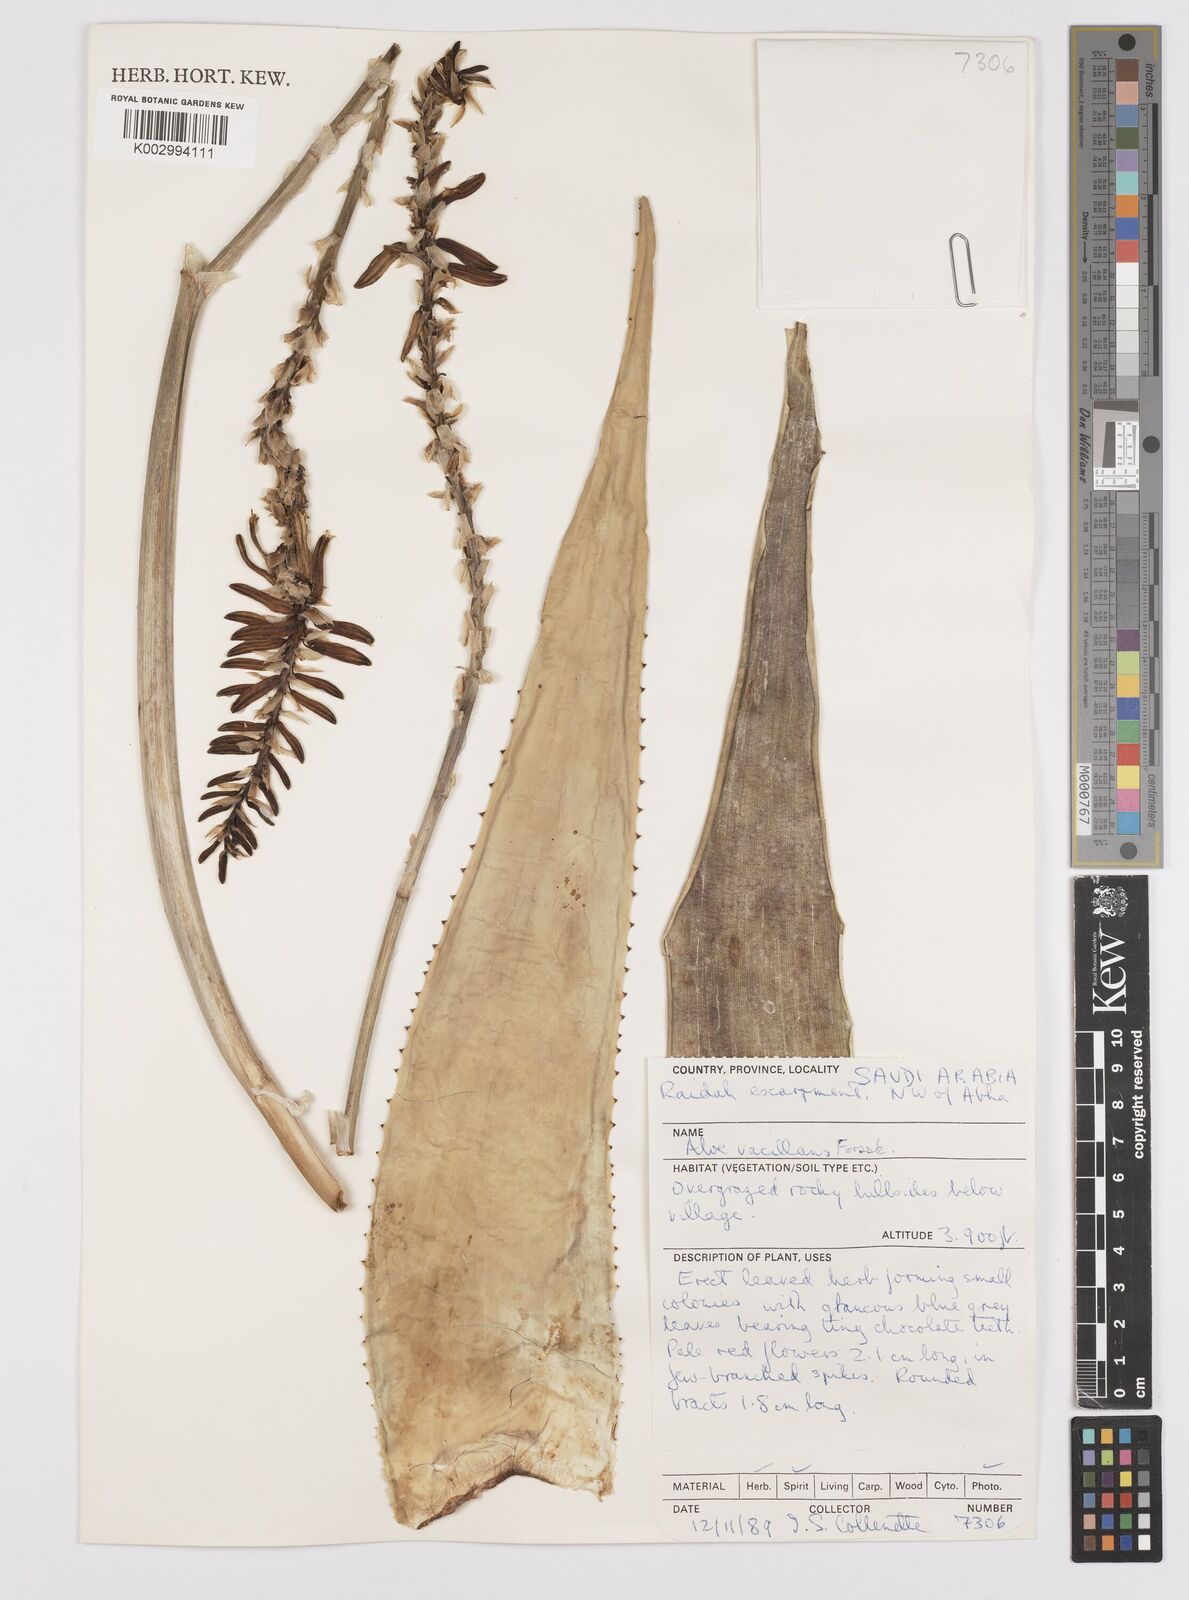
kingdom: Plantae
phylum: Tracheophyta
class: Liliopsida
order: Asparagales
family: Asphodelaceae
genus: Aloe
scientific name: Aloe vacillans
